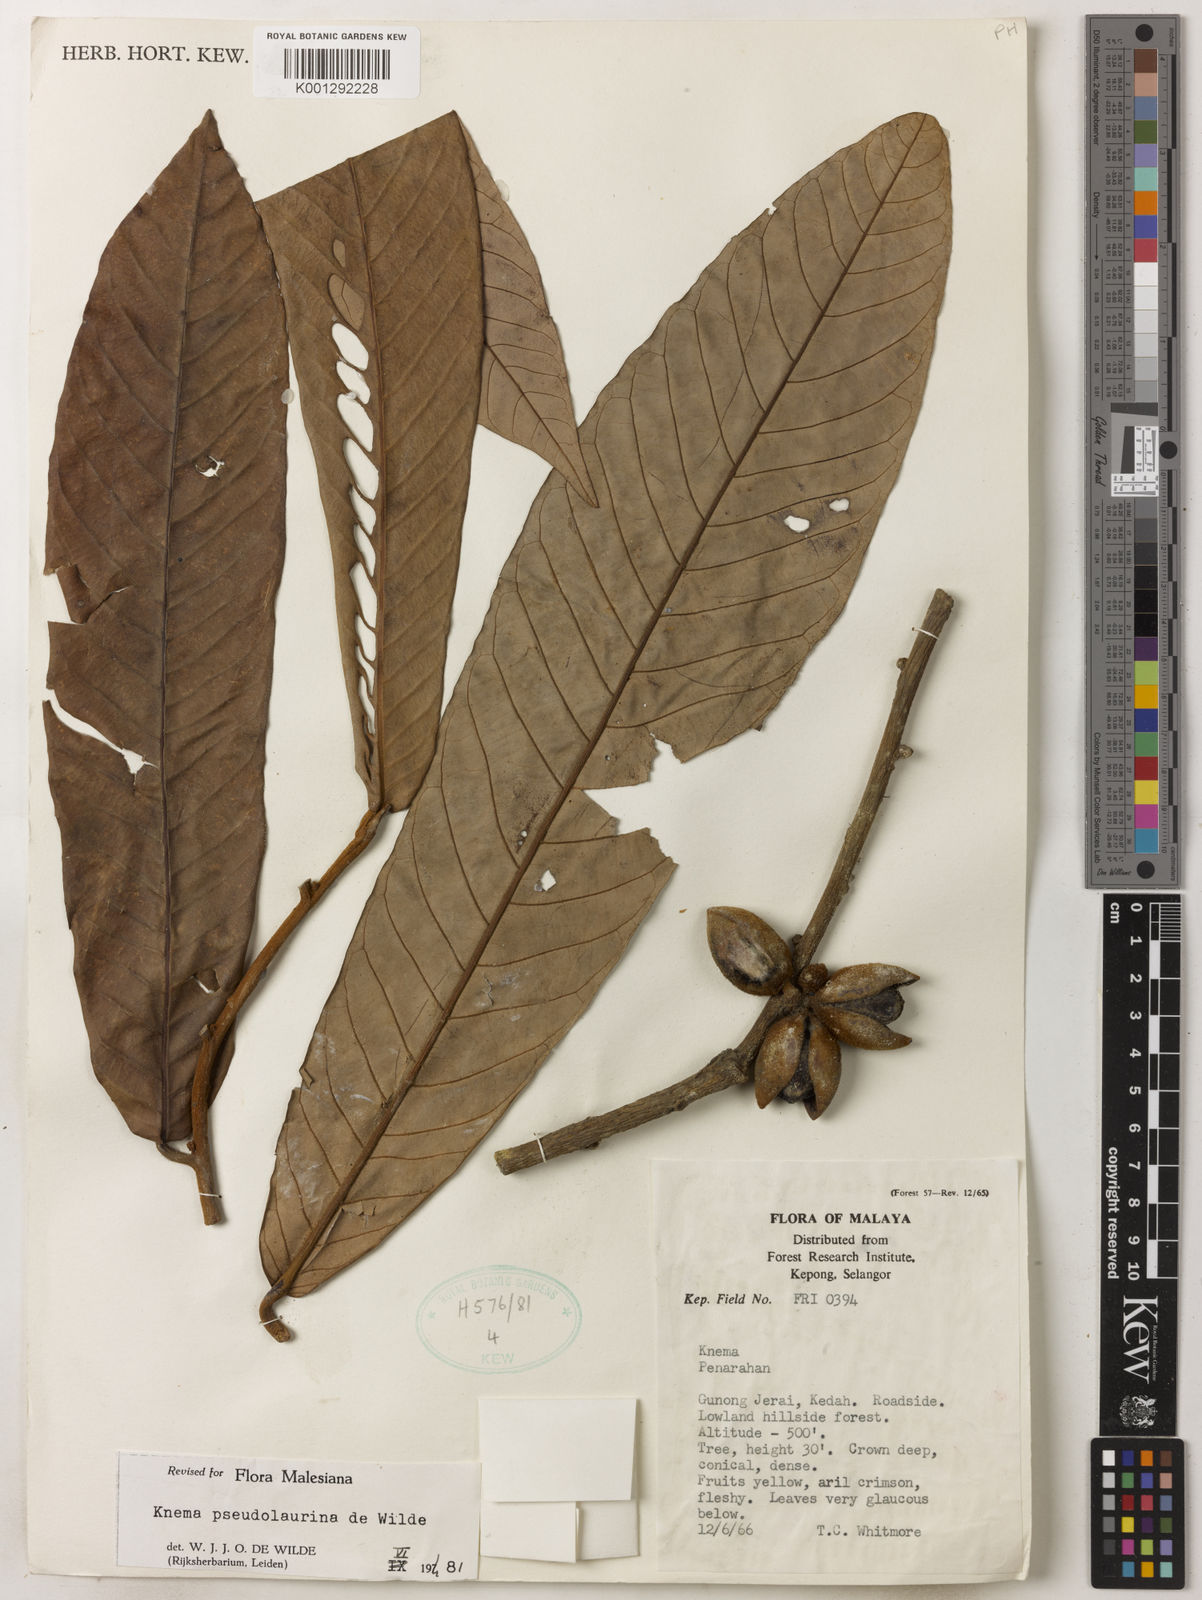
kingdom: Plantae
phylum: Tracheophyta
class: Magnoliopsida
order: Magnoliales
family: Myristicaceae
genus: Knema
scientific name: Knema pseudolaurina
